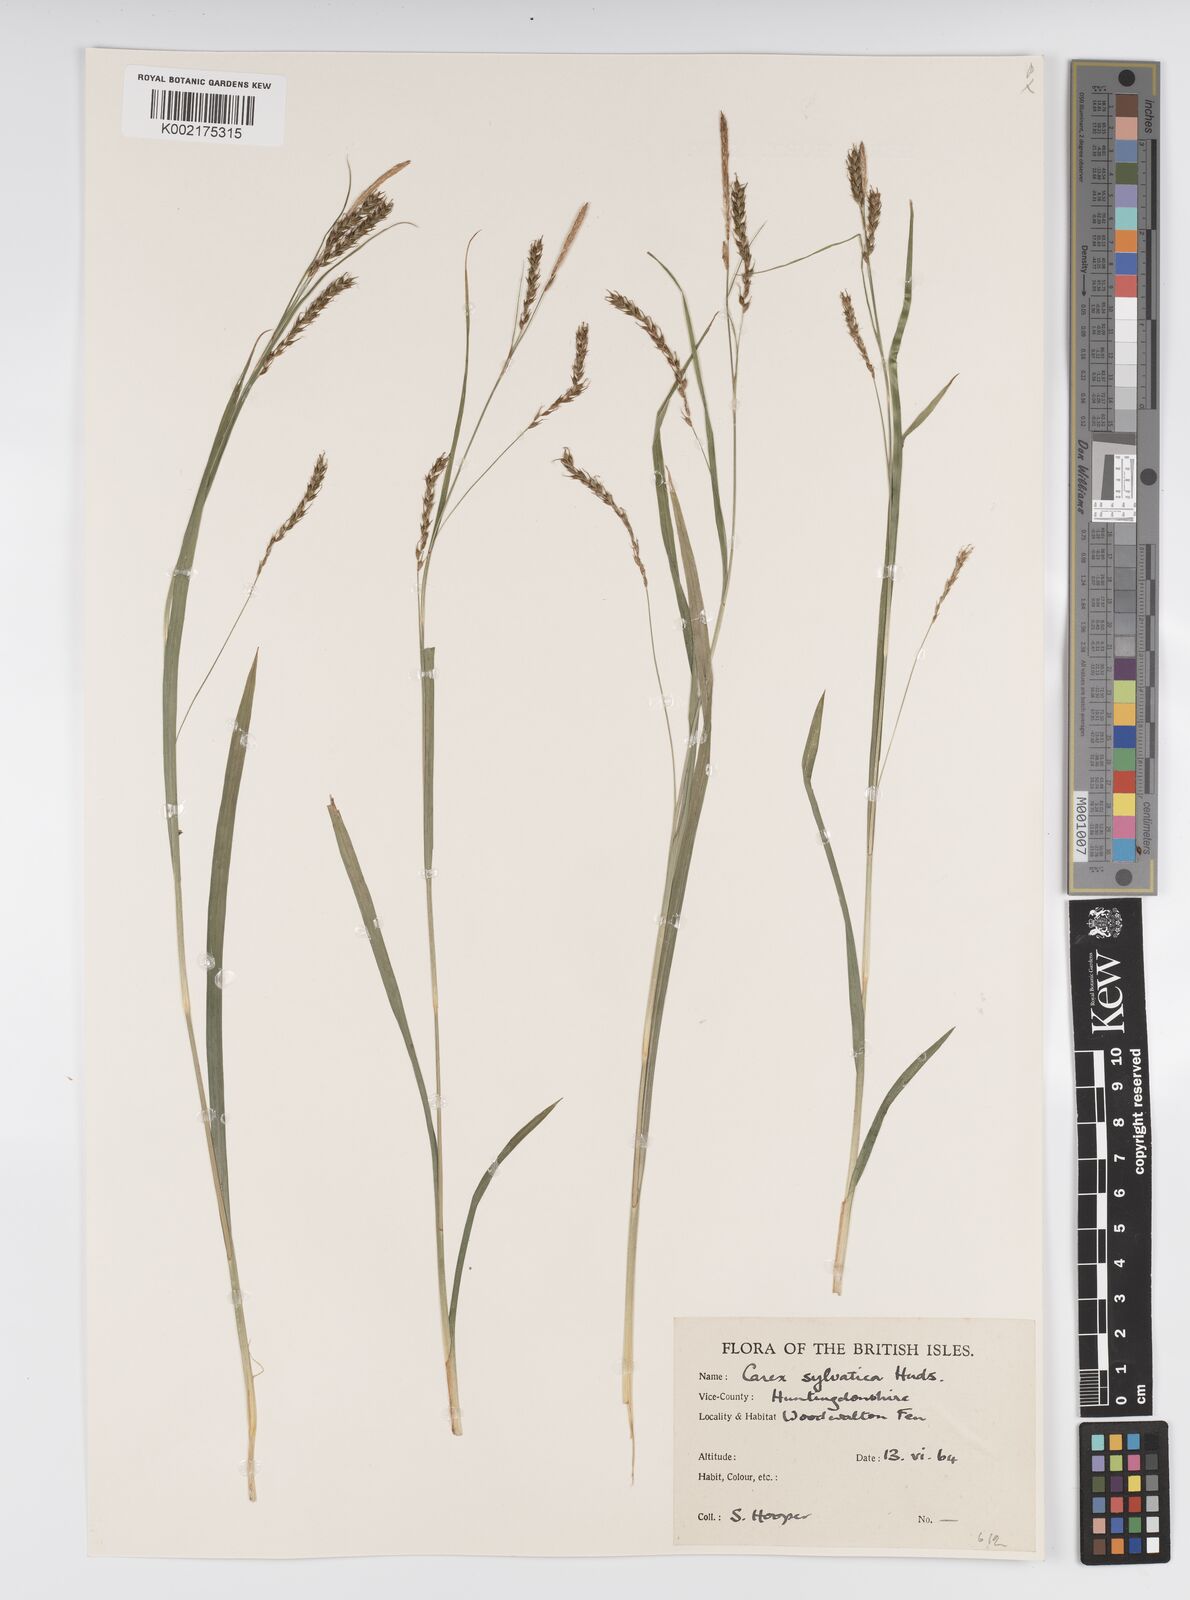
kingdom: Plantae
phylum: Tracheophyta
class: Liliopsida
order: Poales
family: Cyperaceae
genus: Carex
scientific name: Carex sylvatica
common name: Wood-sedge
